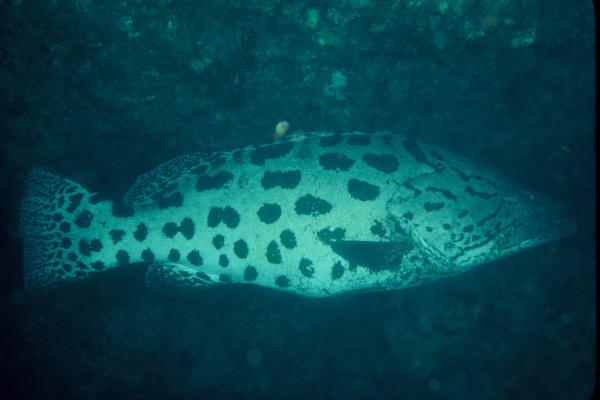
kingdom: Animalia
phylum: Chordata
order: Perciformes
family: Serranidae
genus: Epinephelus
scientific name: Epinephelus tukula
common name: Potato cod
